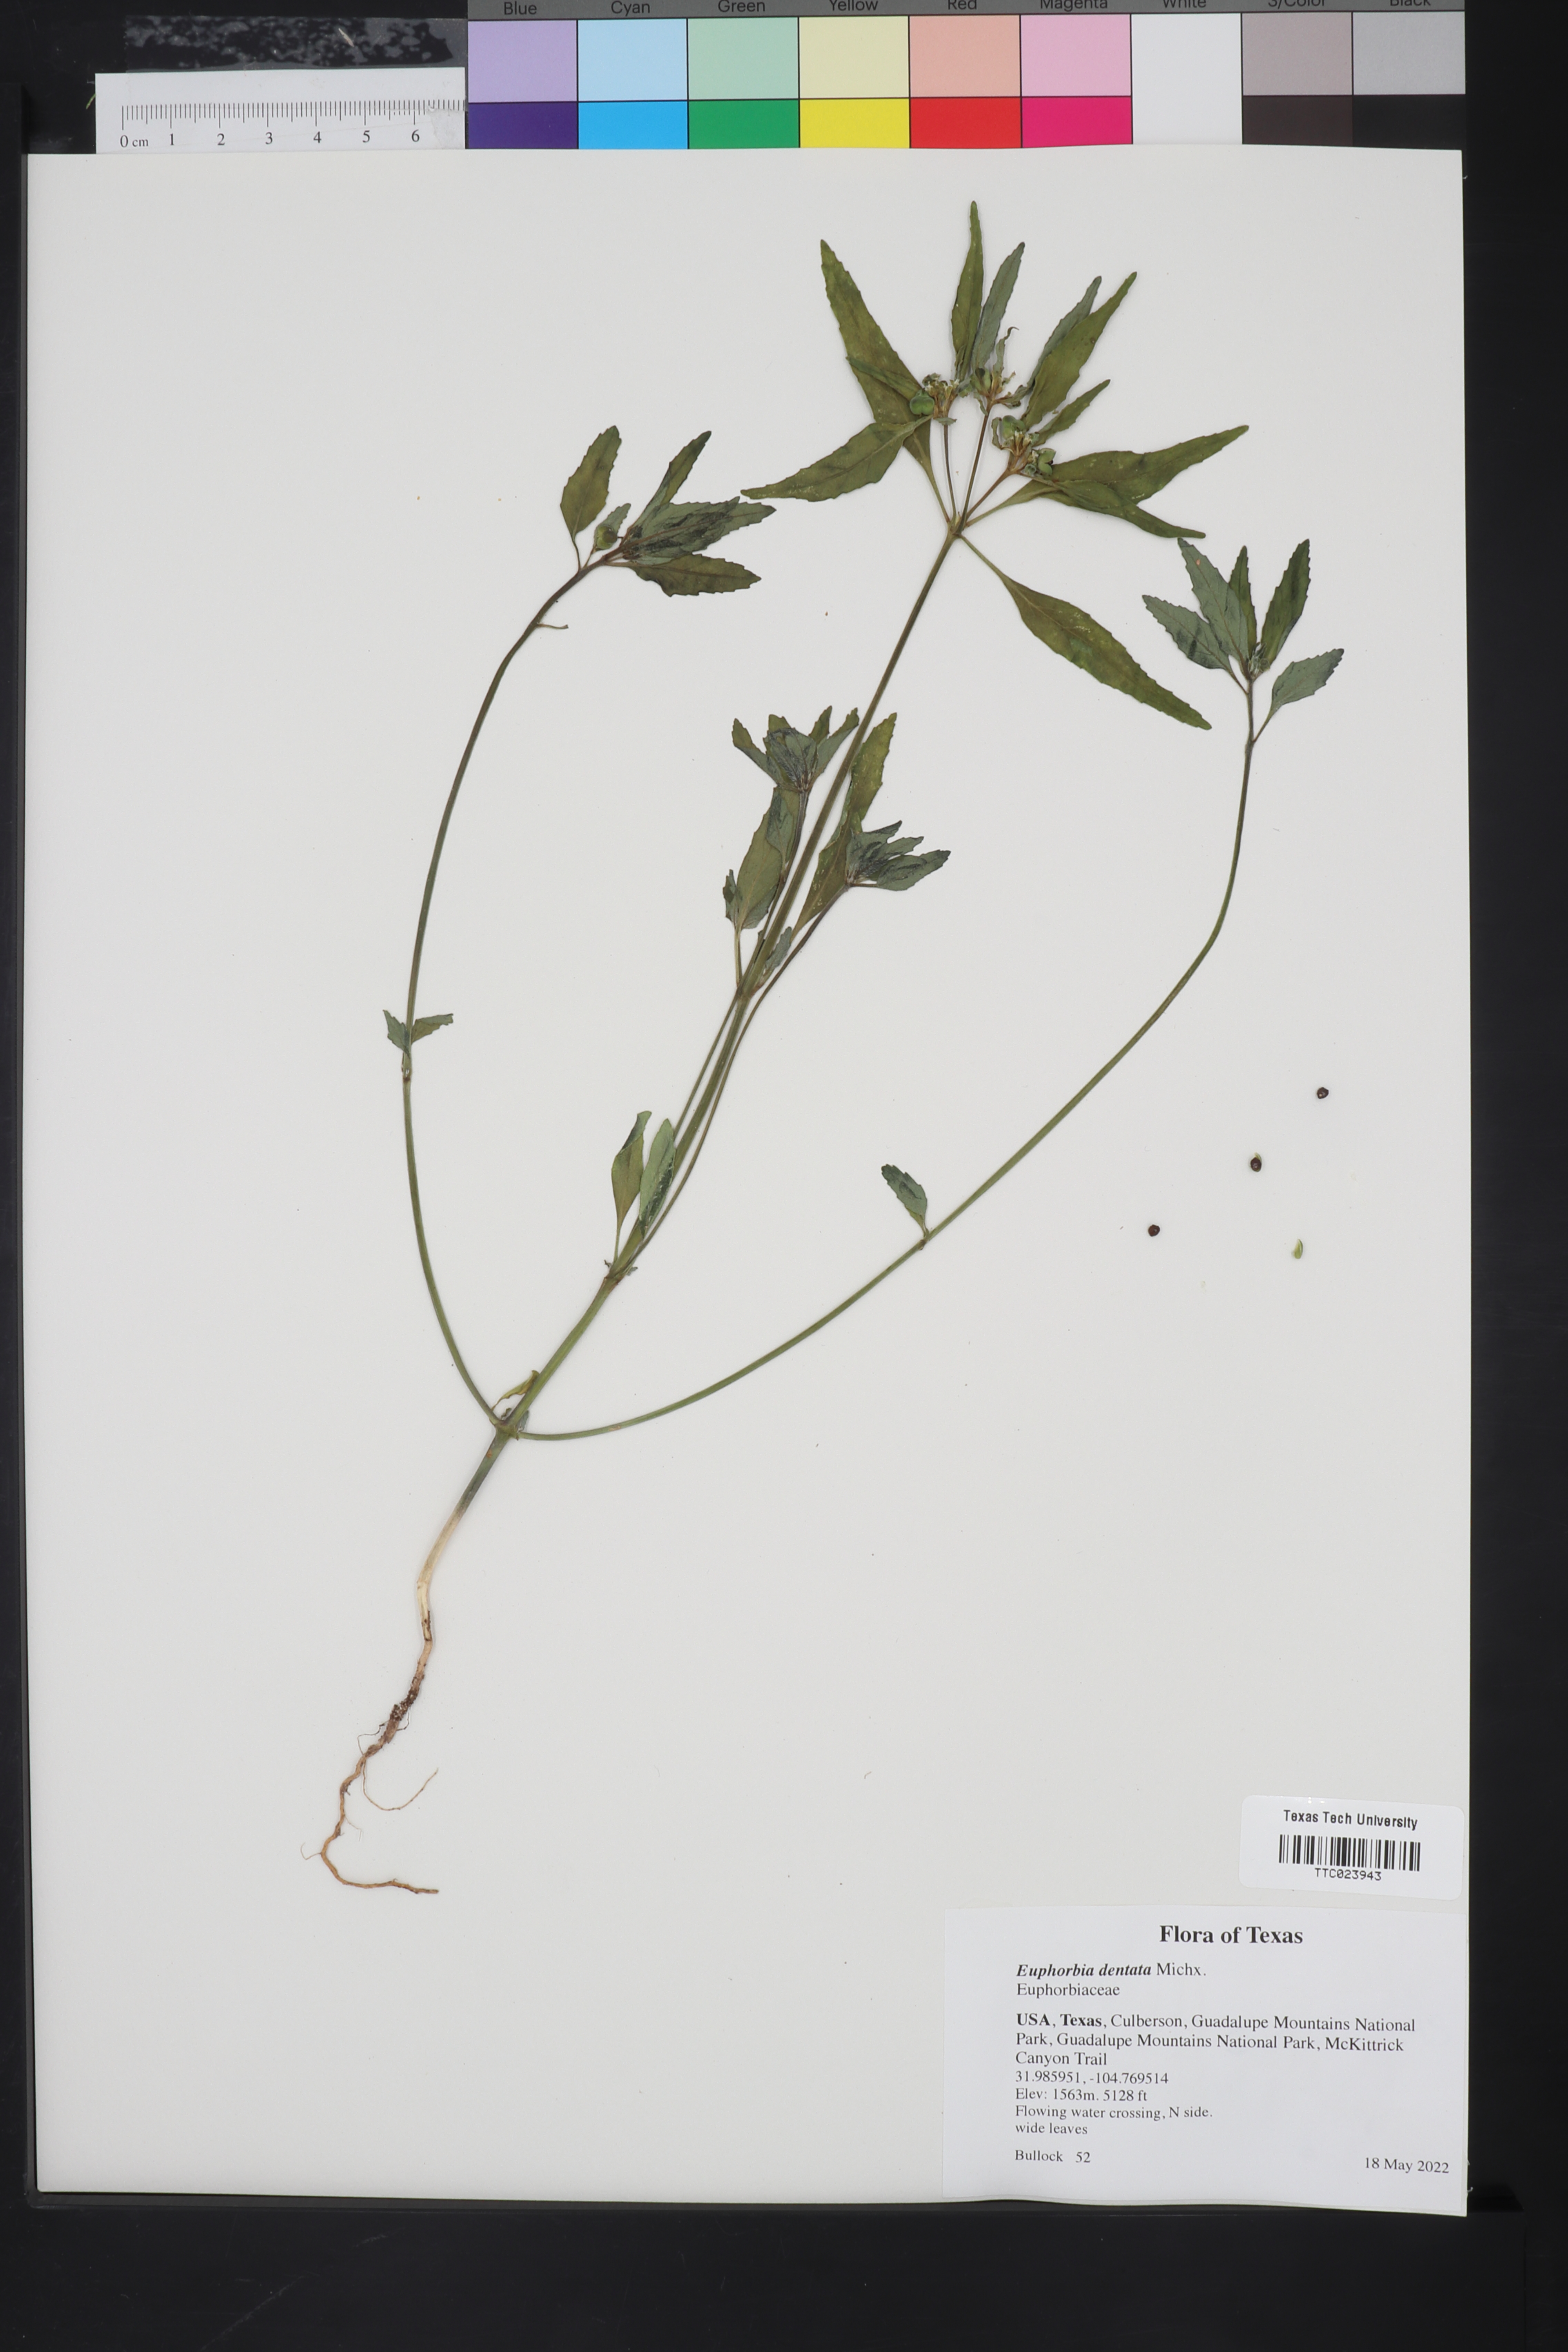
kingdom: Plantae
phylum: Tracheophyta
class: Magnoliopsida
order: Malpighiales
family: Euphorbiaceae
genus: Euphorbia
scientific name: Euphorbia dentata
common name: Dentate spurge
